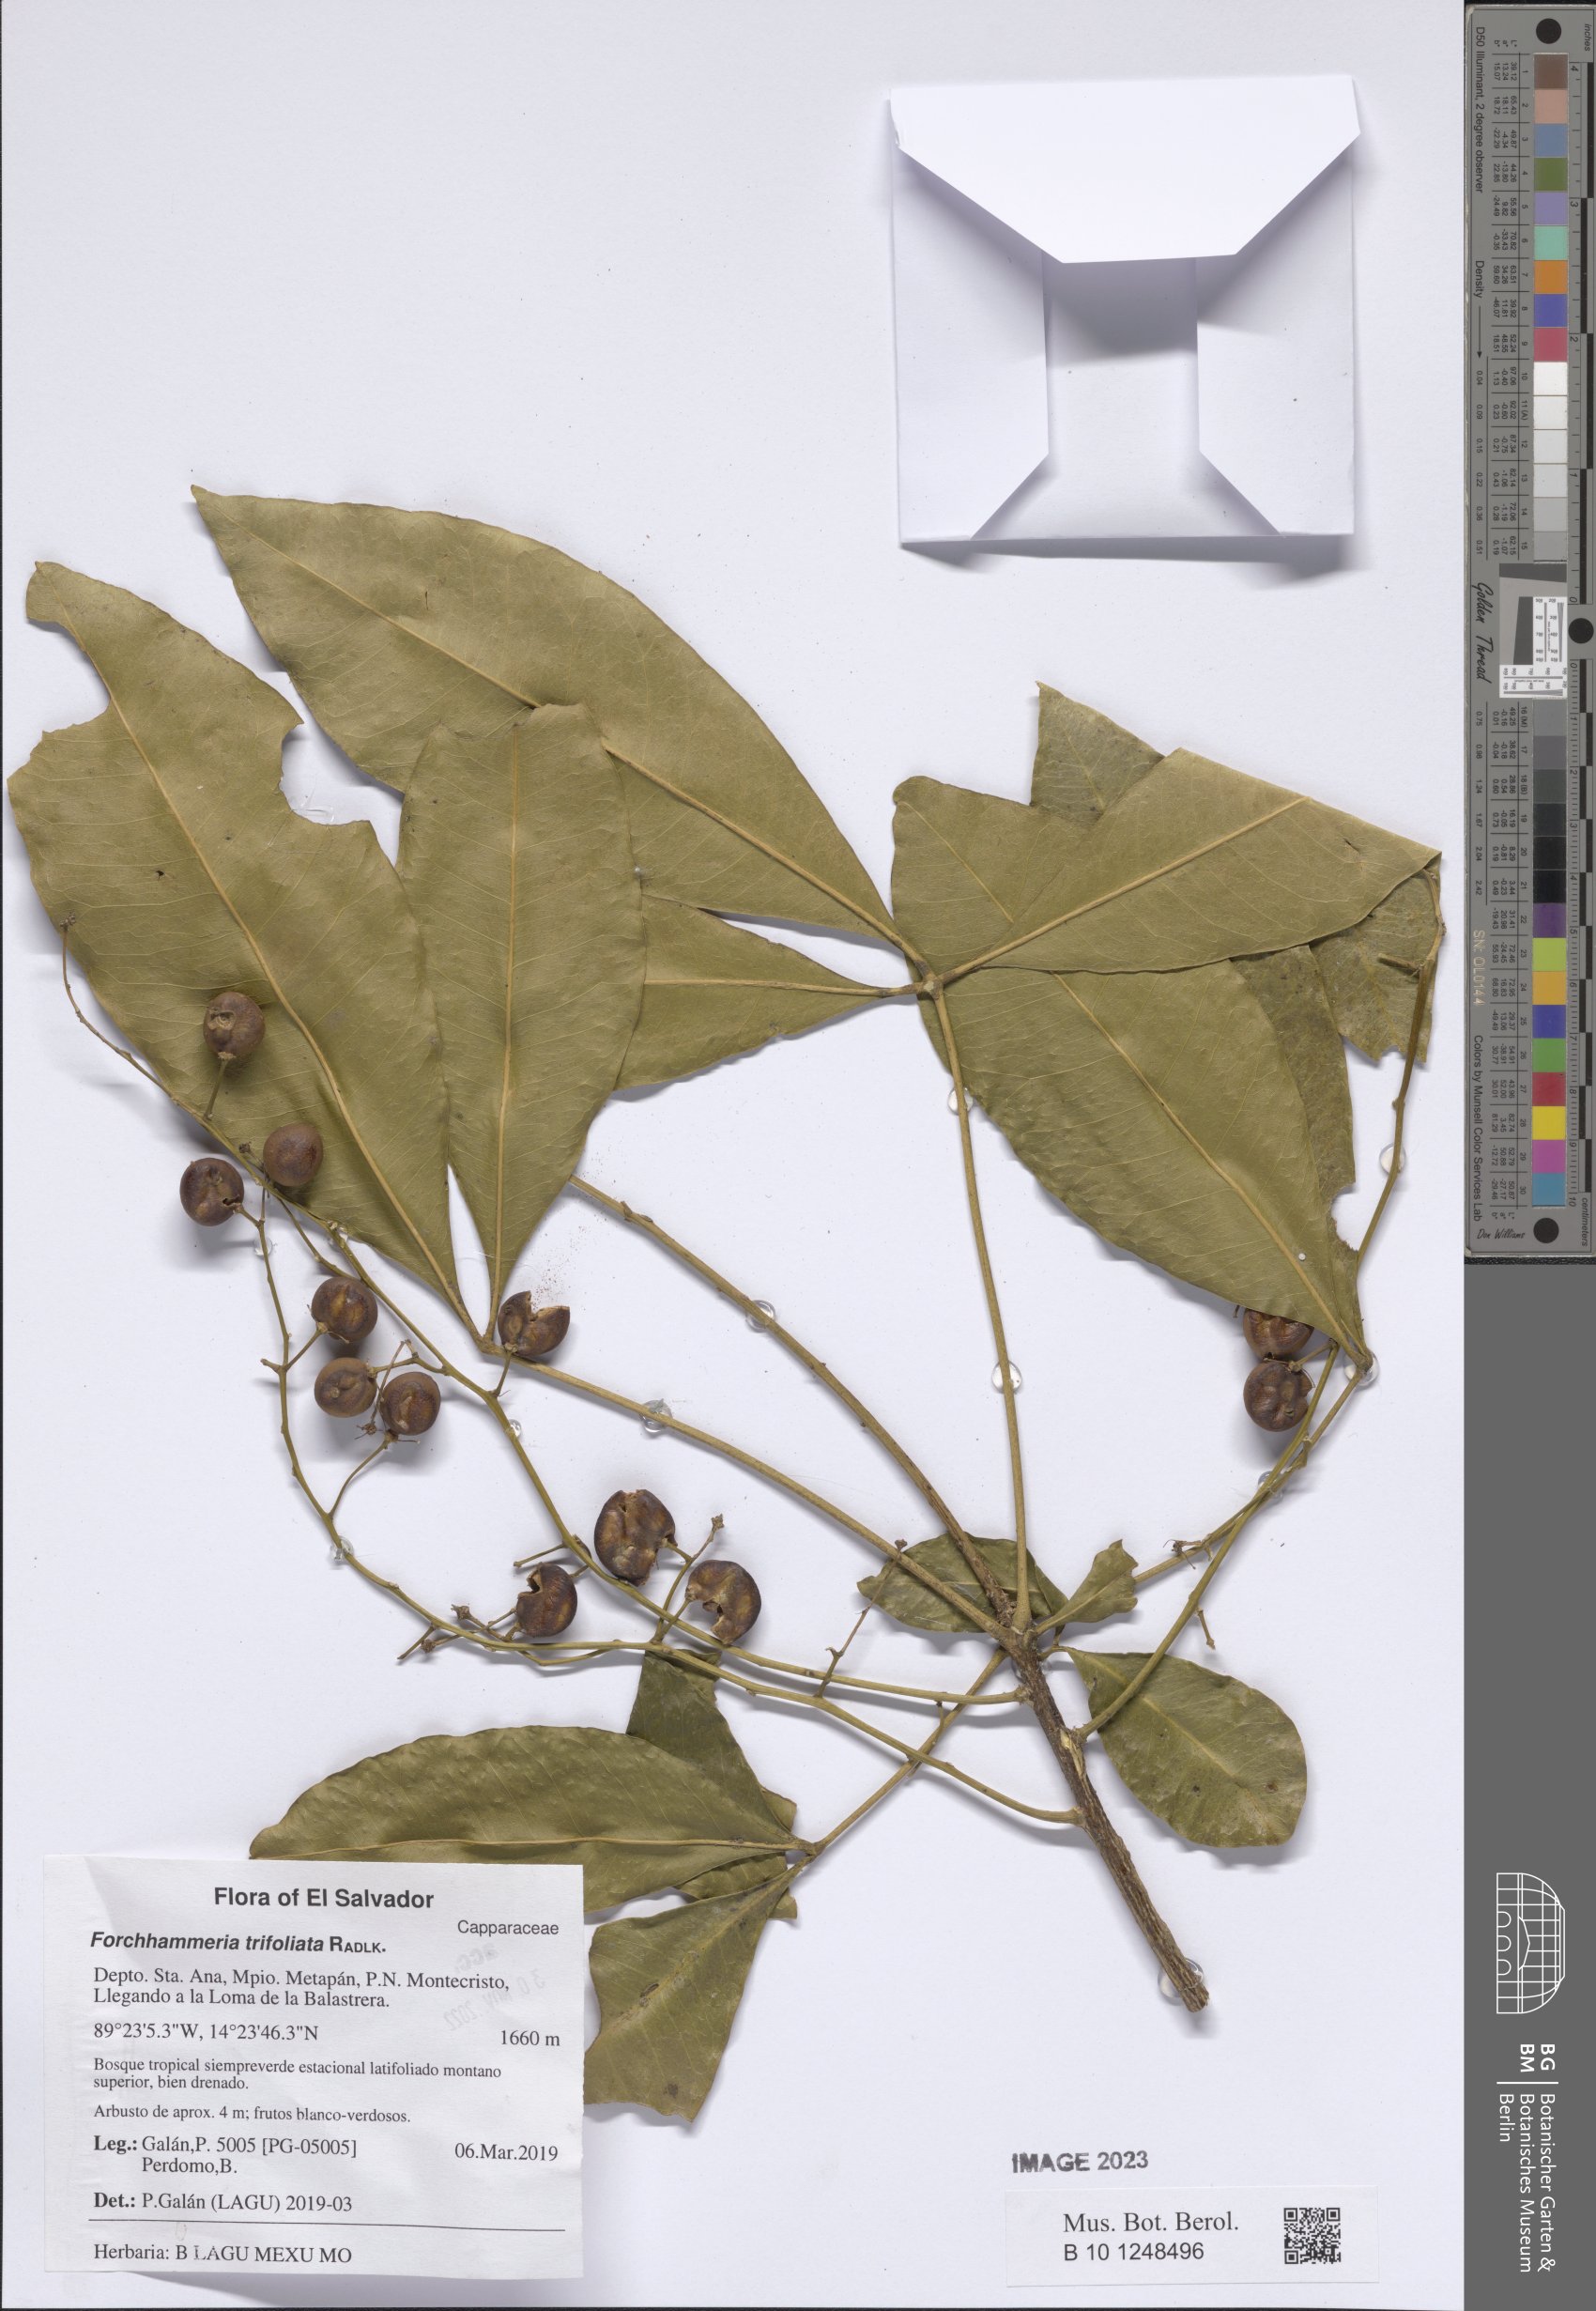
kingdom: Plantae
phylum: Tracheophyta
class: Magnoliopsida
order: Brassicales
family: Stixaceae
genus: Forchhammeria
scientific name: Forchhammeria trifoliata
